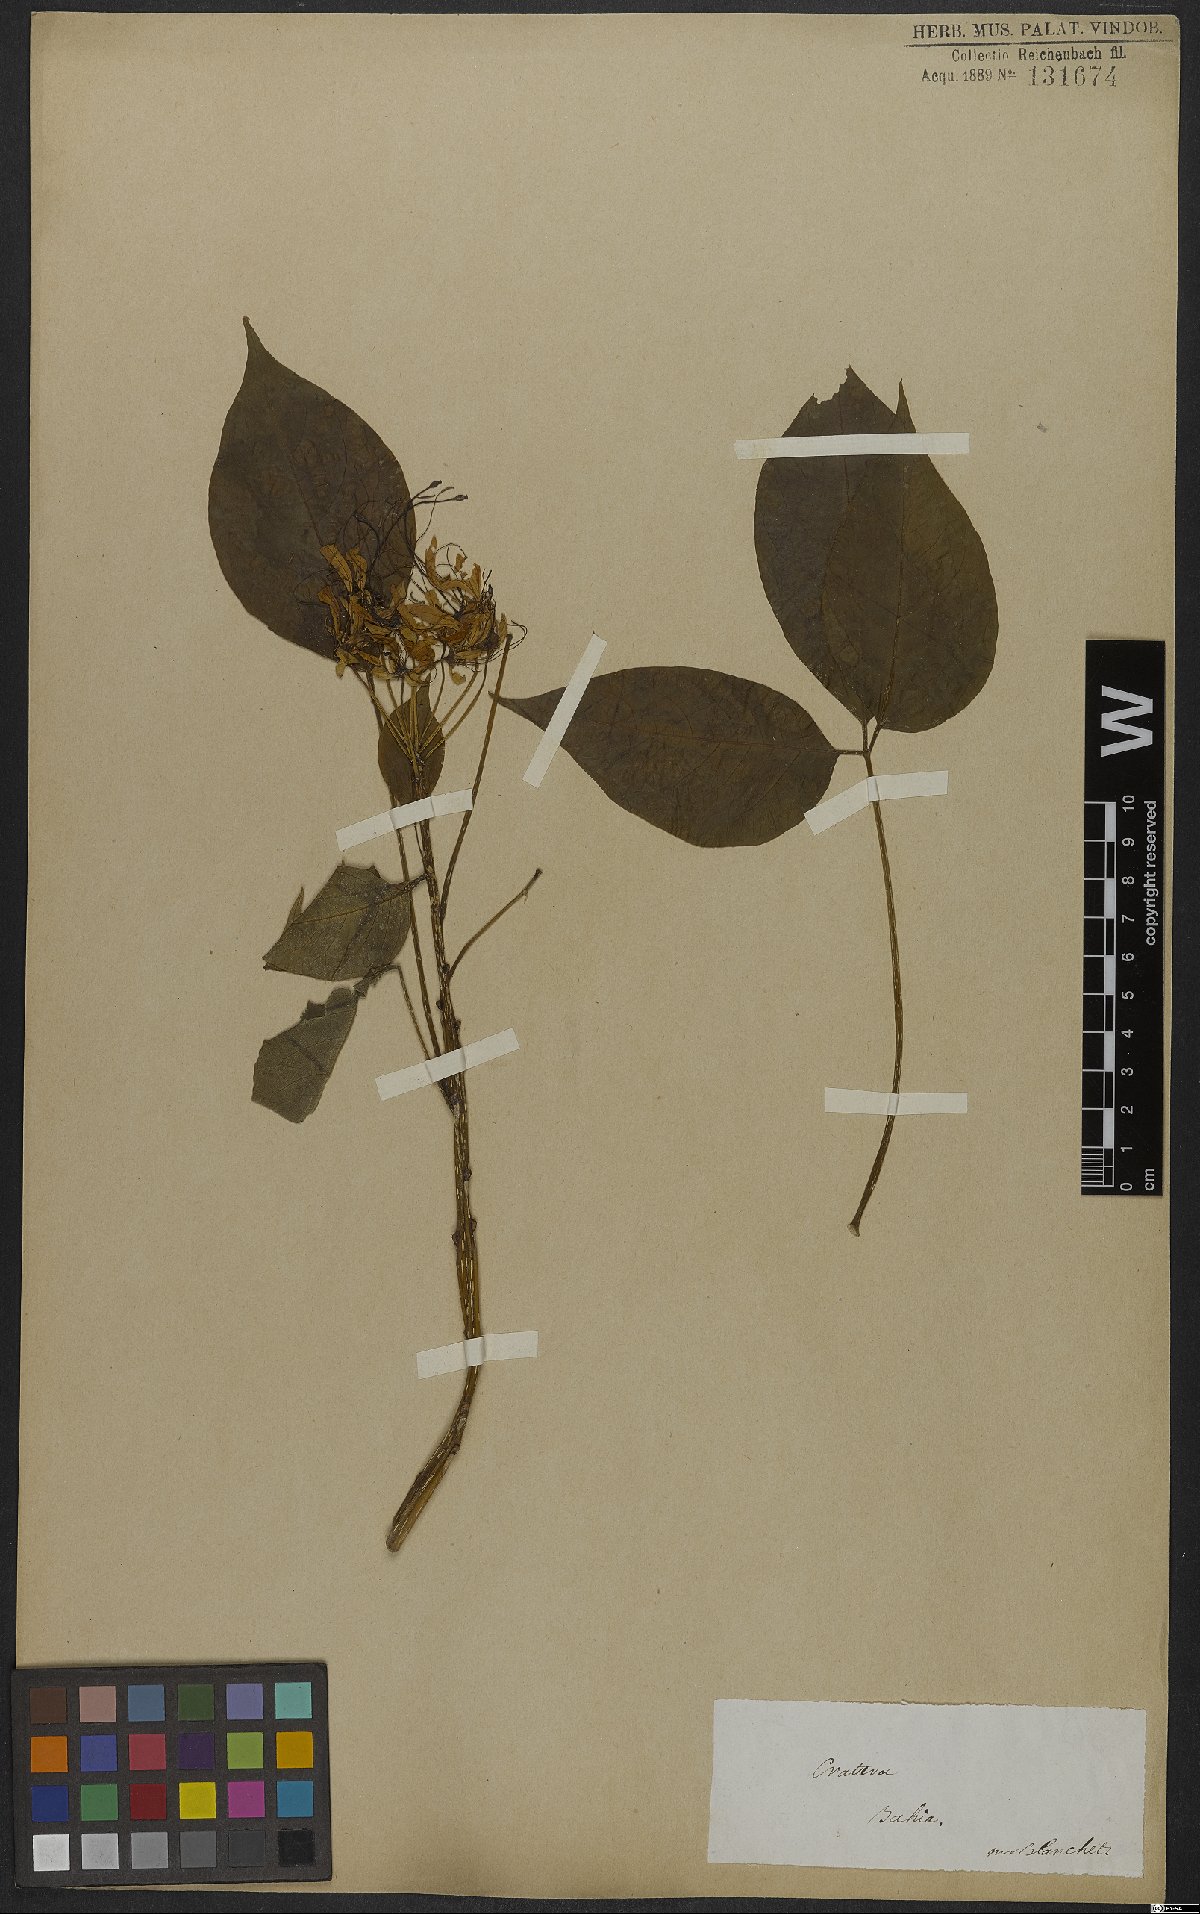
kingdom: Plantae
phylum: Tracheophyta
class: Magnoliopsida
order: Brassicales
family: Capparaceae
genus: Crateva
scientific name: Crateva tapia
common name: Garlic-pear
